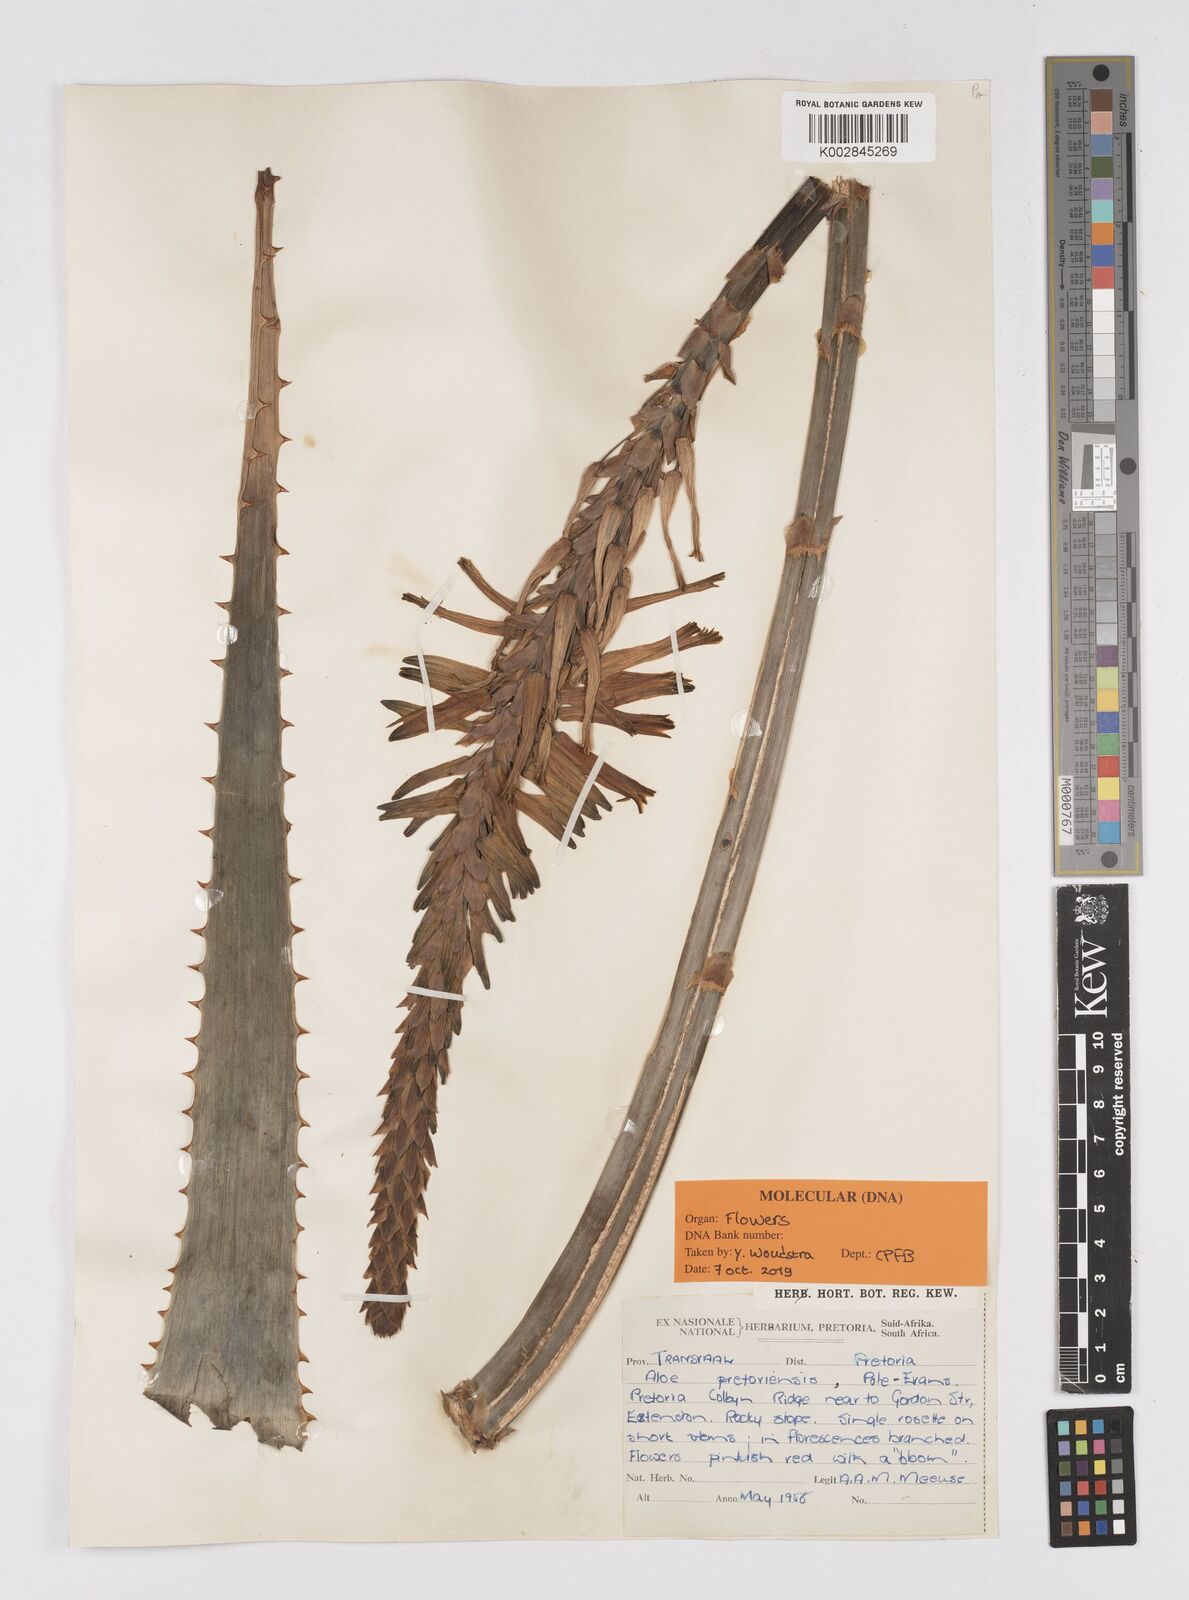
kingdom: Plantae
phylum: Tracheophyta
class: Liliopsida
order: Asparagales
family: Asphodelaceae
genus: Aloe
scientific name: Aloe pretoriensis
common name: Pretoria aloe
